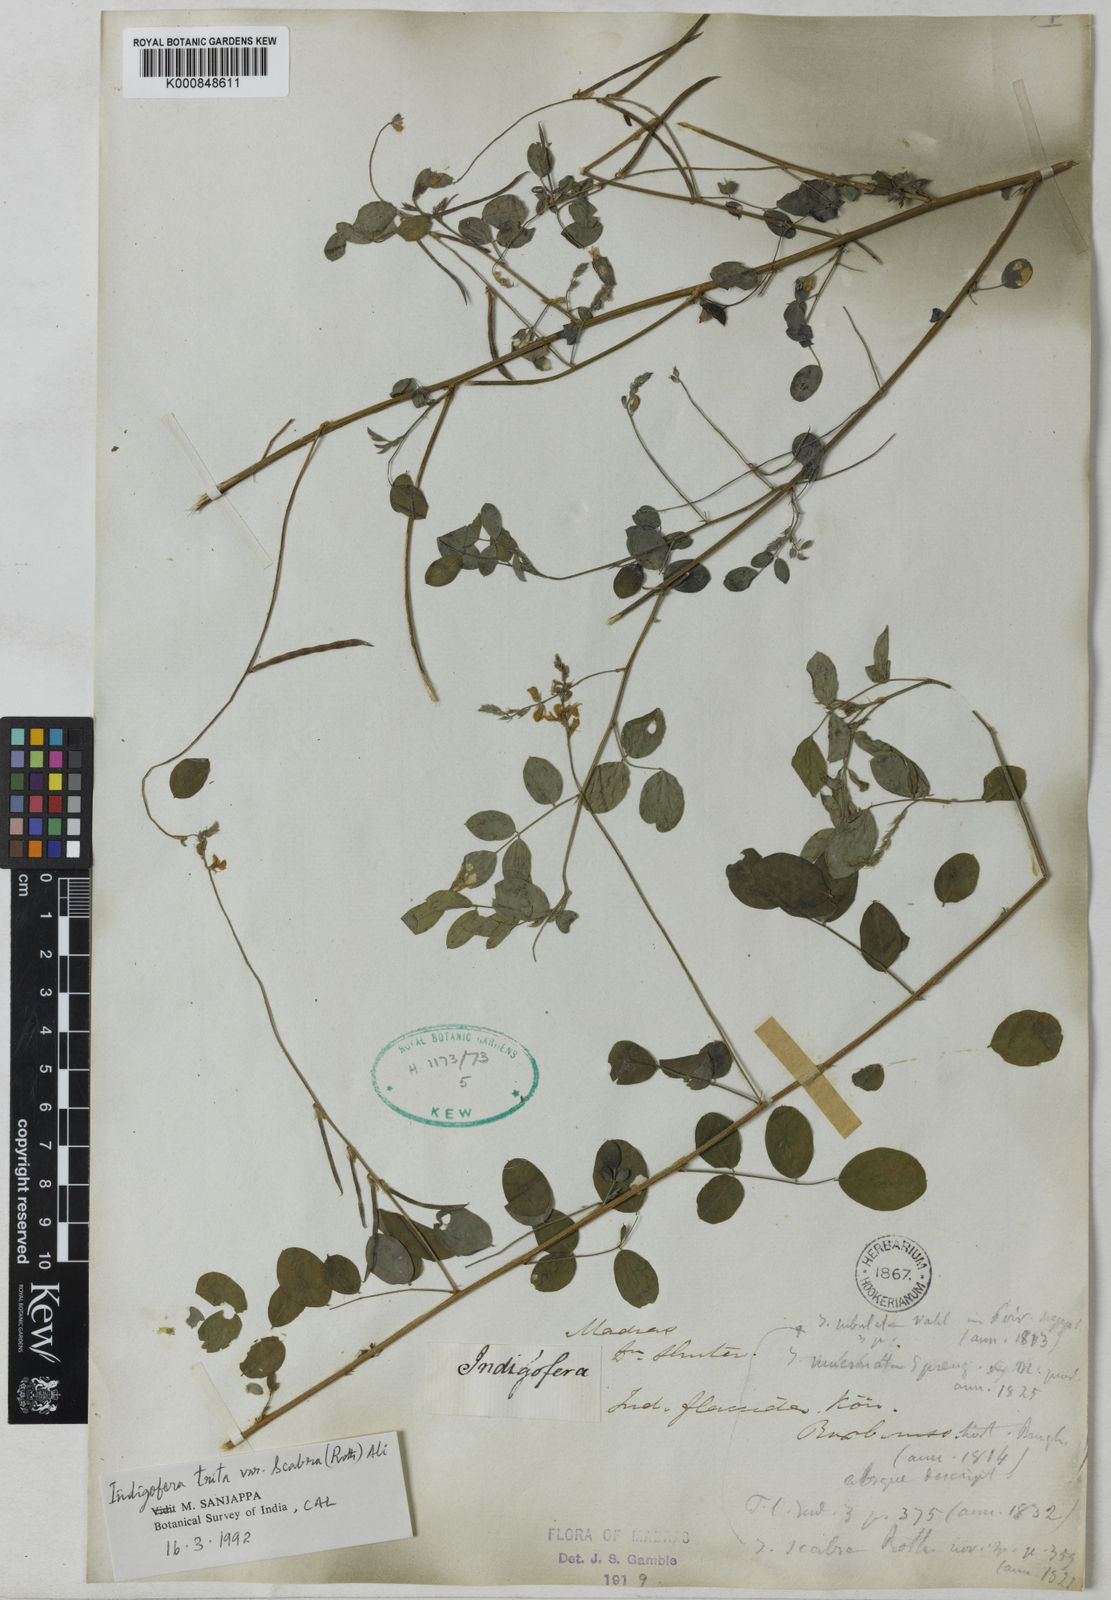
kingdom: Plantae
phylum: Tracheophyta
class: Magnoliopsida
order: Fabales
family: Fabaceae
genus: Indigofera
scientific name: Indigofera subulata
